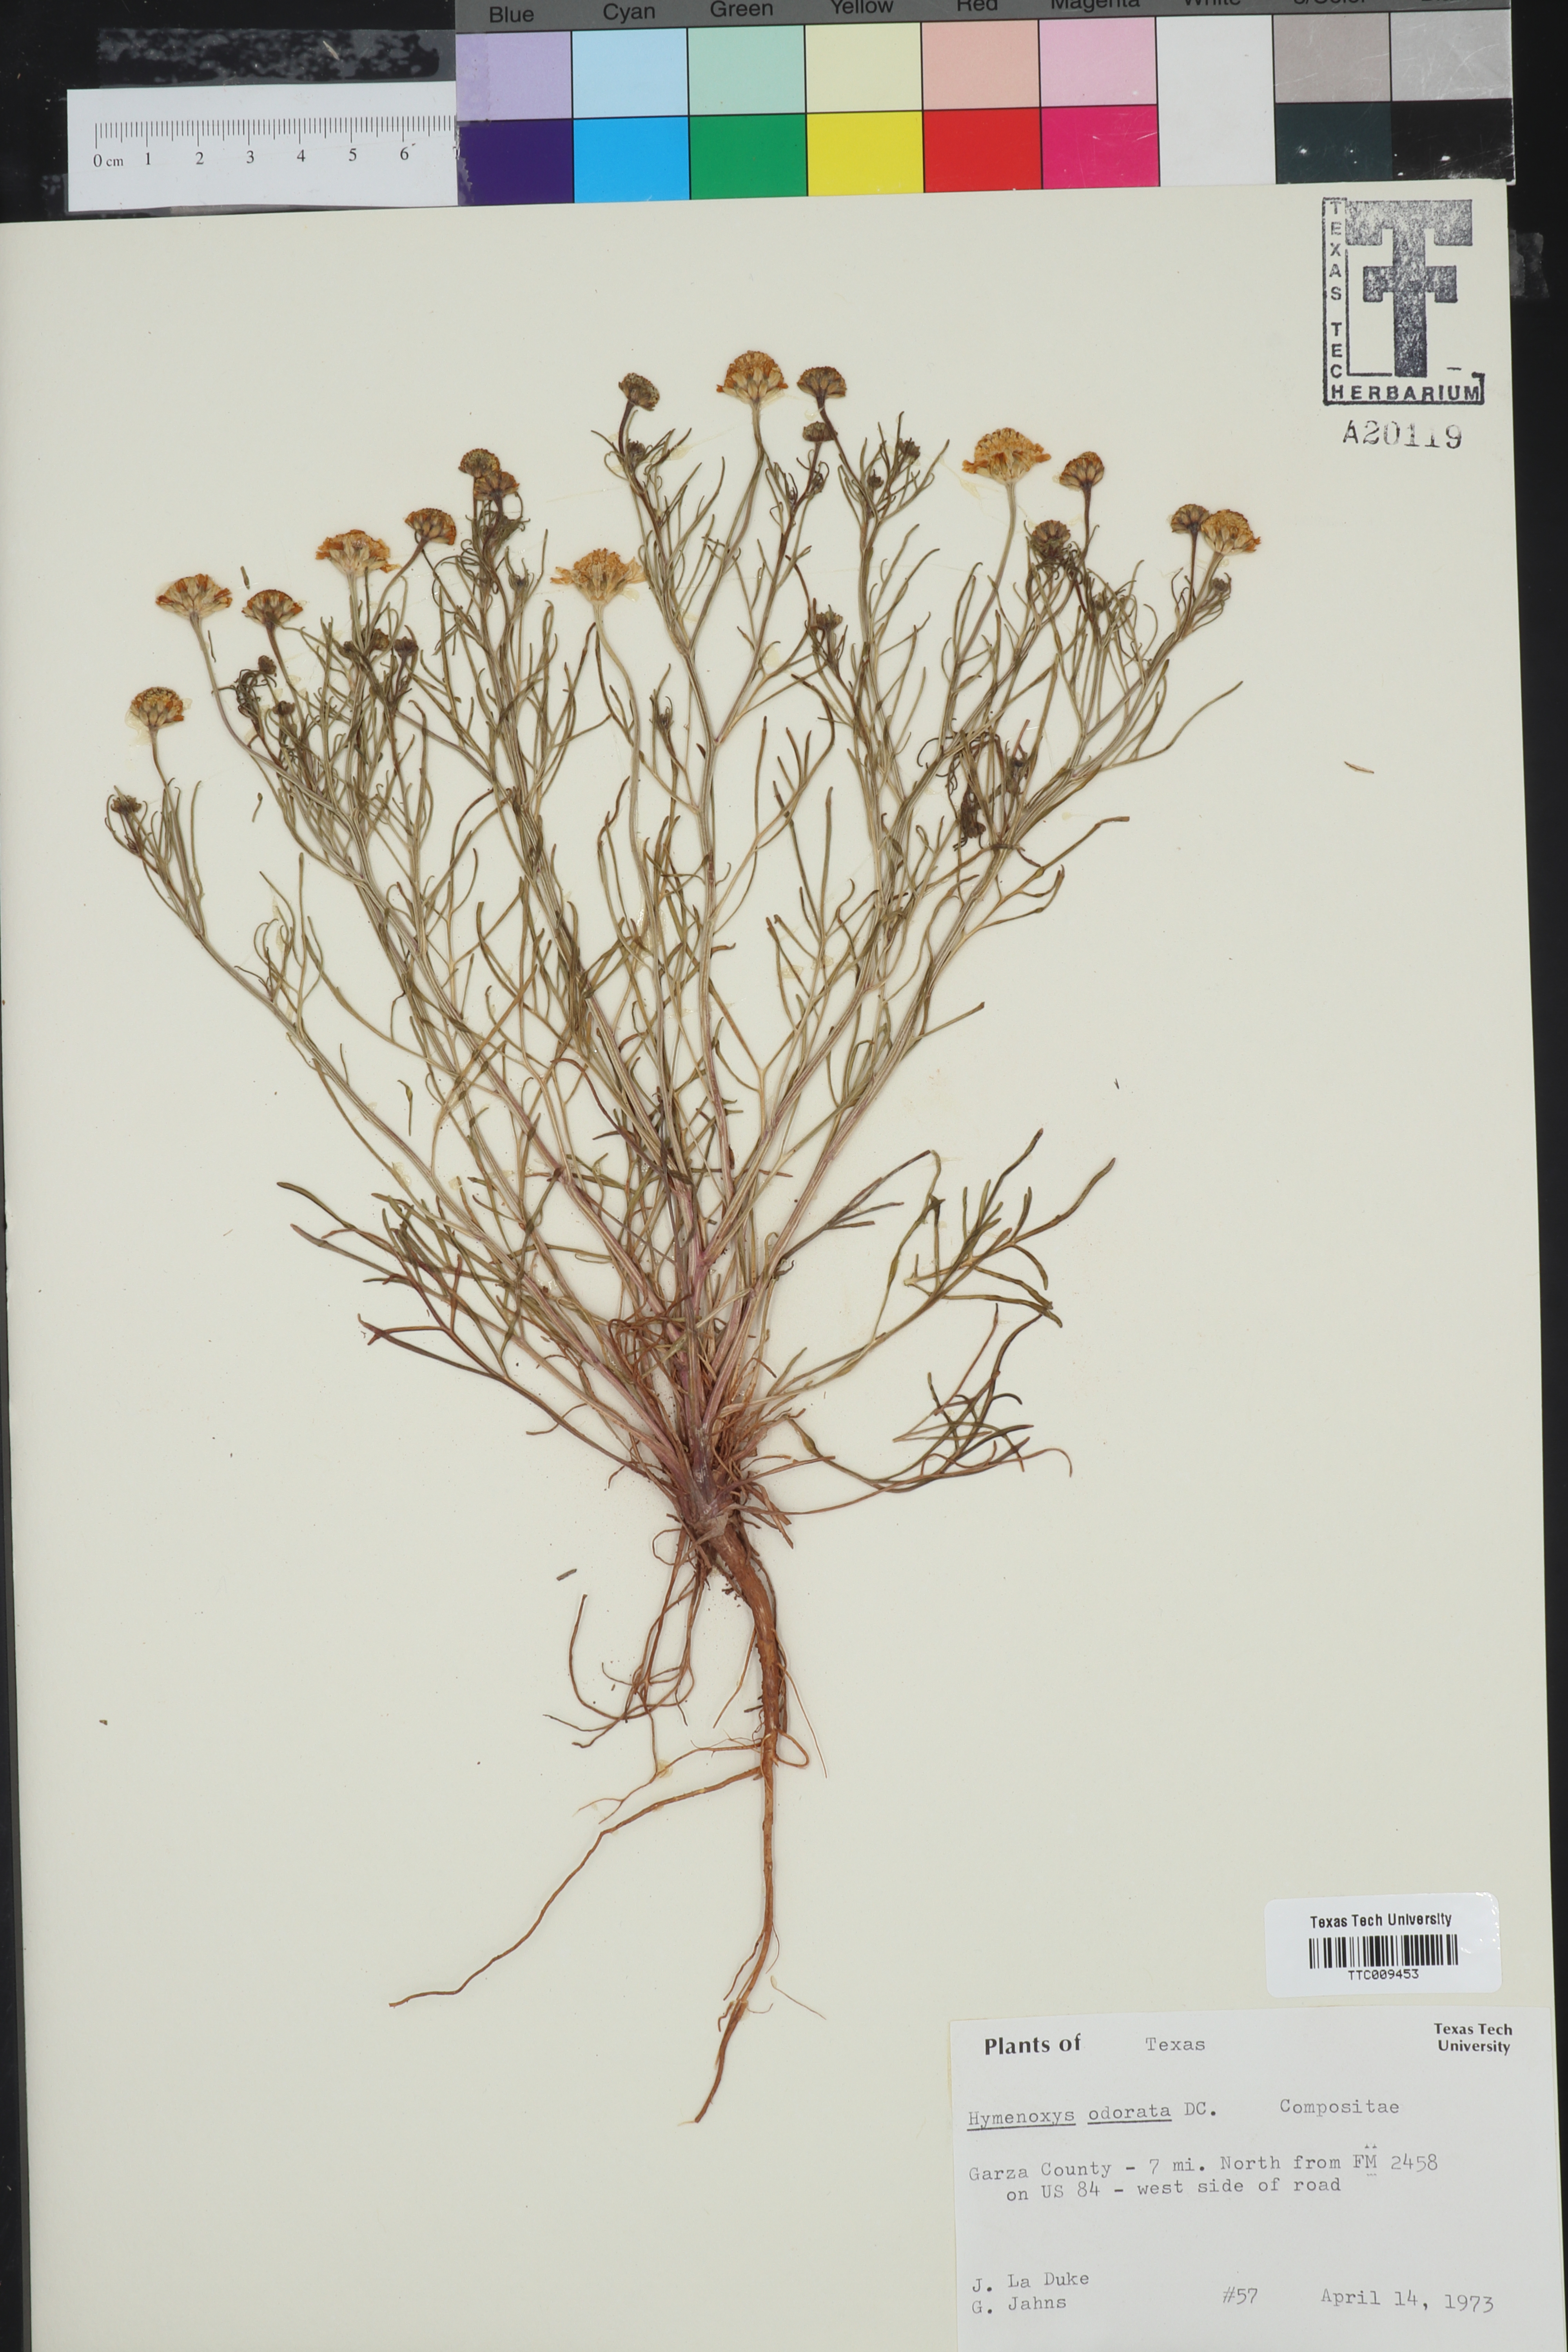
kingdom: Plantae
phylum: Tracheophyta
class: Magnoliopsida
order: Asterales
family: Asteraceae
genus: Hymenoxys
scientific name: Hymenoxys odorata
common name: Bitter rubberweed
